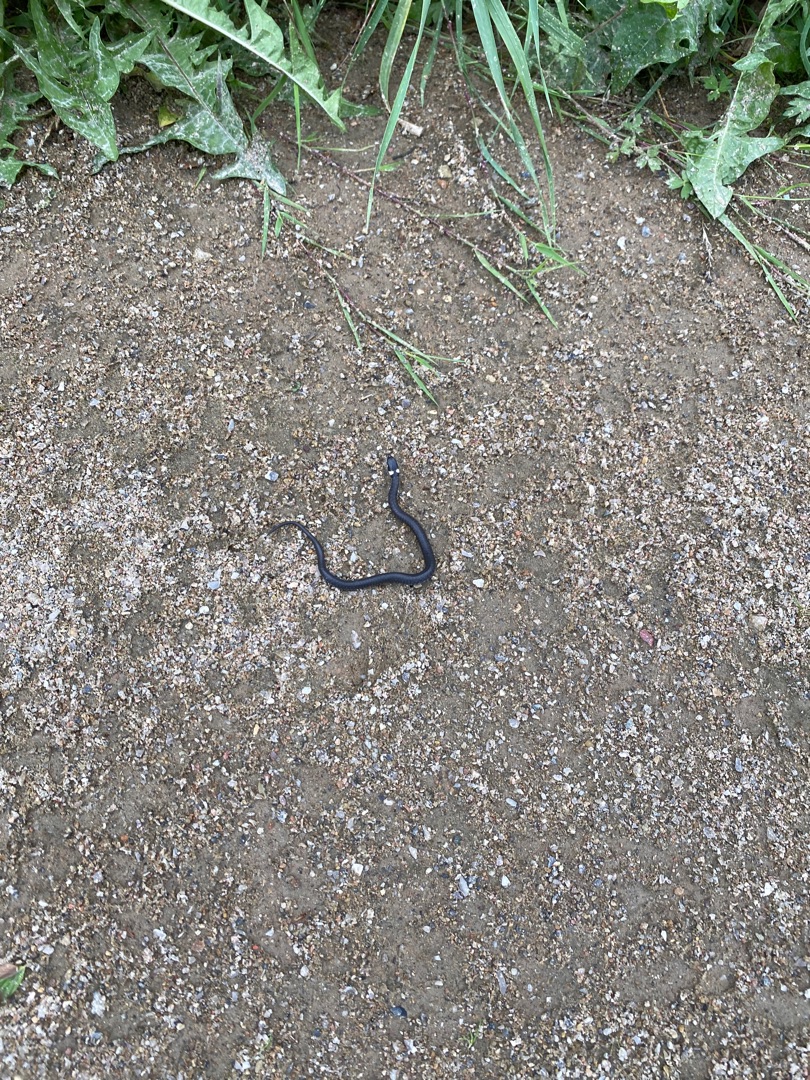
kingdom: Animalia
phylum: Chordata
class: Squamata
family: Colubridae
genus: Natrix
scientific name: Natrix natrix
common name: Snog
